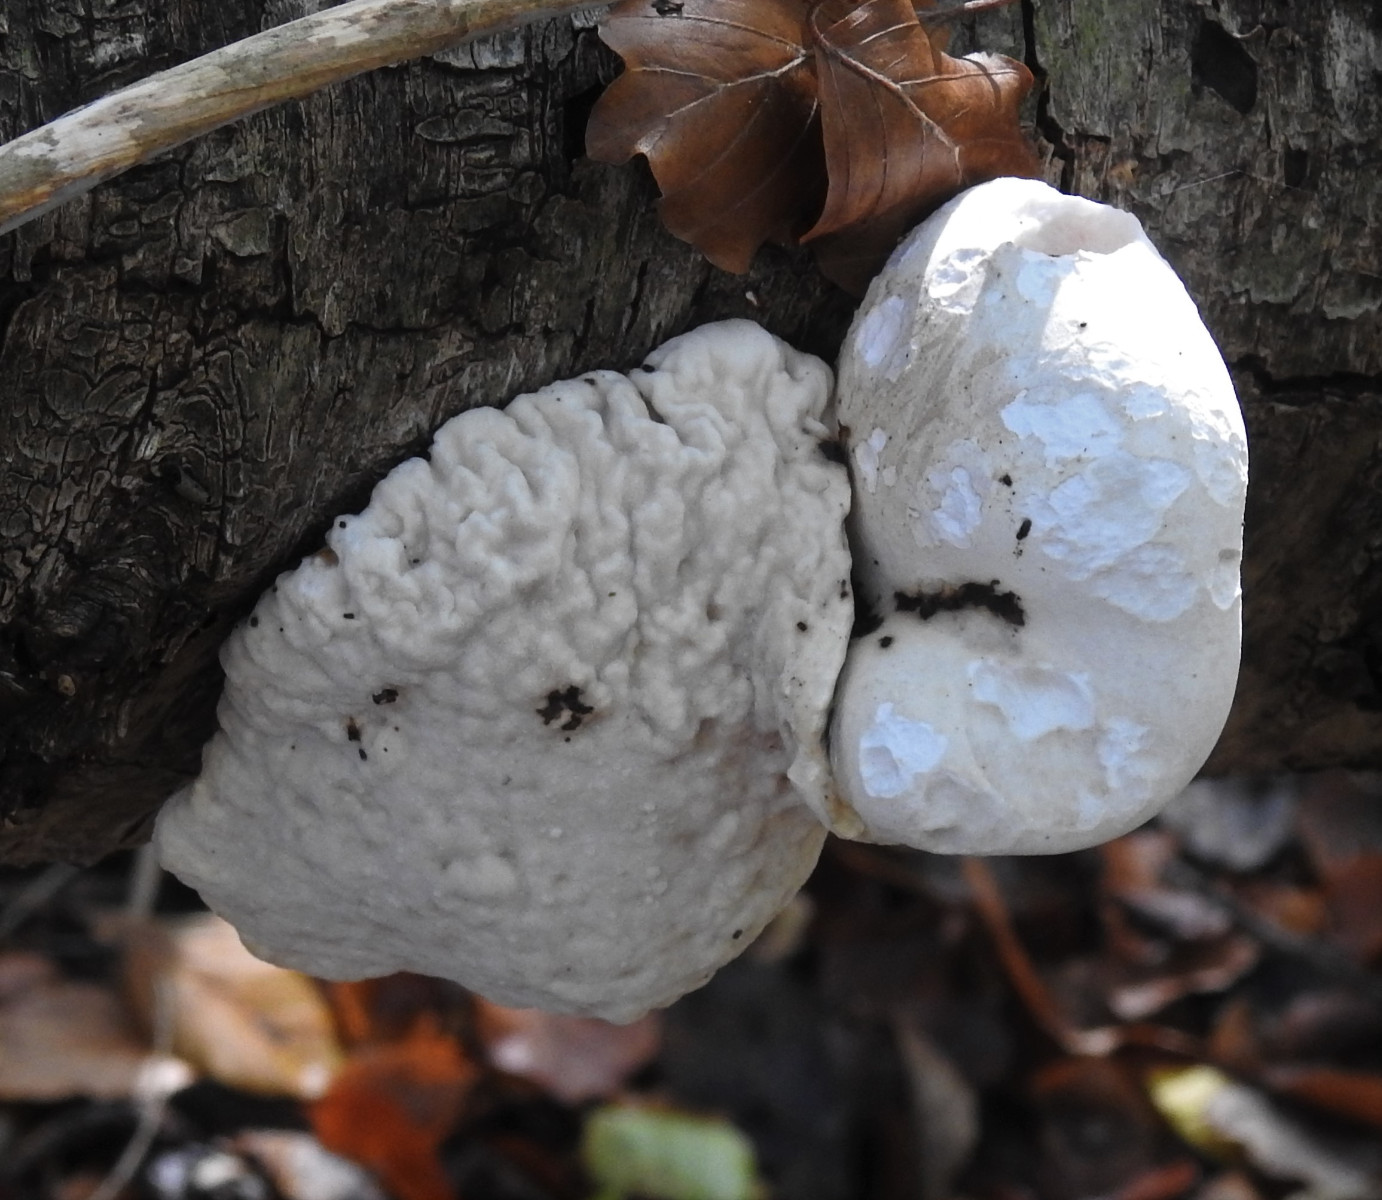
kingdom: Fungi
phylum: Basidiomycota
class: Agaricomycetes
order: Polyporales
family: Fomitopsidaceae
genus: Fomitopsis
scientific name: Fomitopsis betulina
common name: birkeporesvamp
